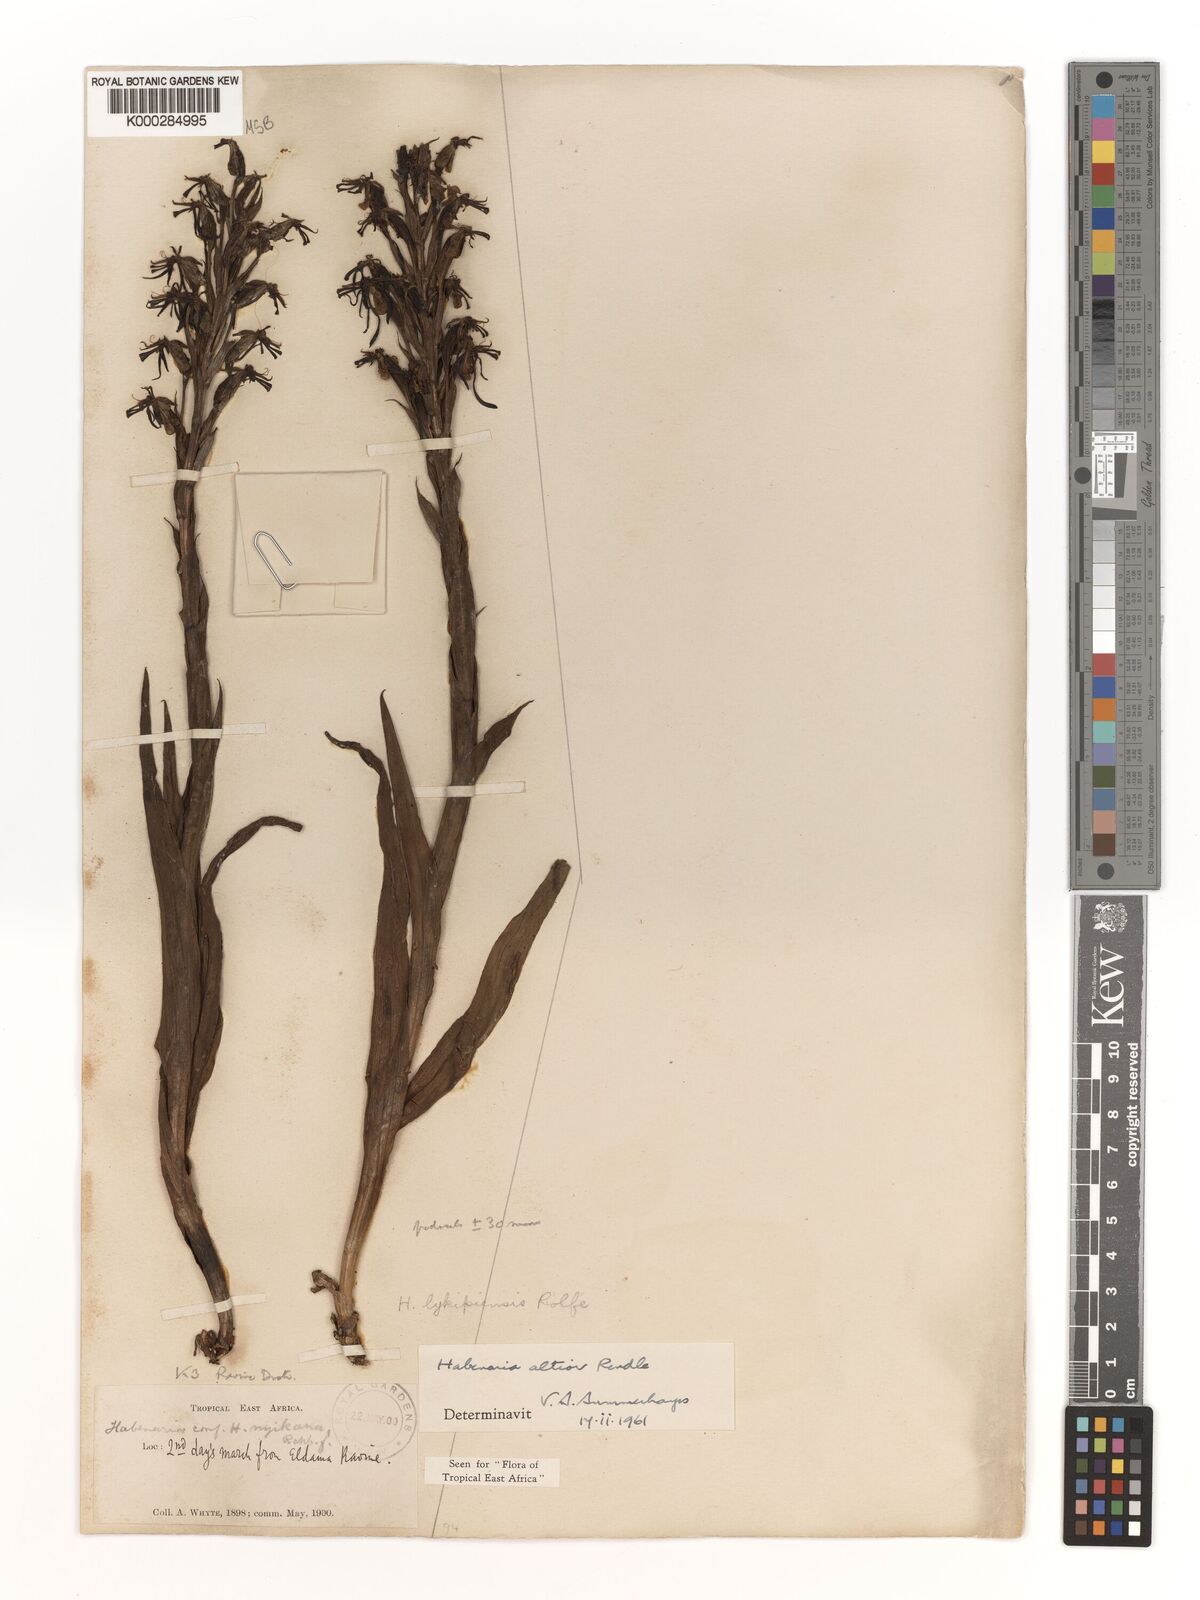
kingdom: Plantae
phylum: Tracheophyta
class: Liliopsida
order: Asparagales
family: Orchidaceae
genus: Habenaria
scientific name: Habenaria altior
